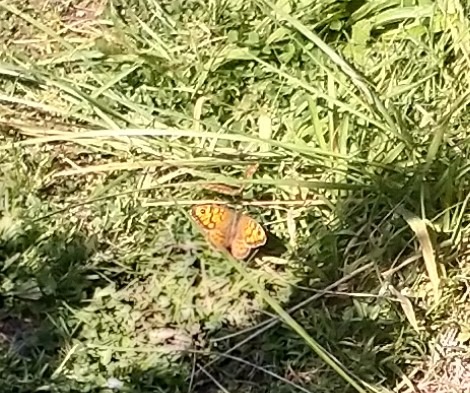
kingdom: Animalia
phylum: Arthropoda
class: Insecta
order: Lepidoptera
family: Nymphalidae
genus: Pararge
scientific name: Pararge Lasiommata megera
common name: Vejrandøje
